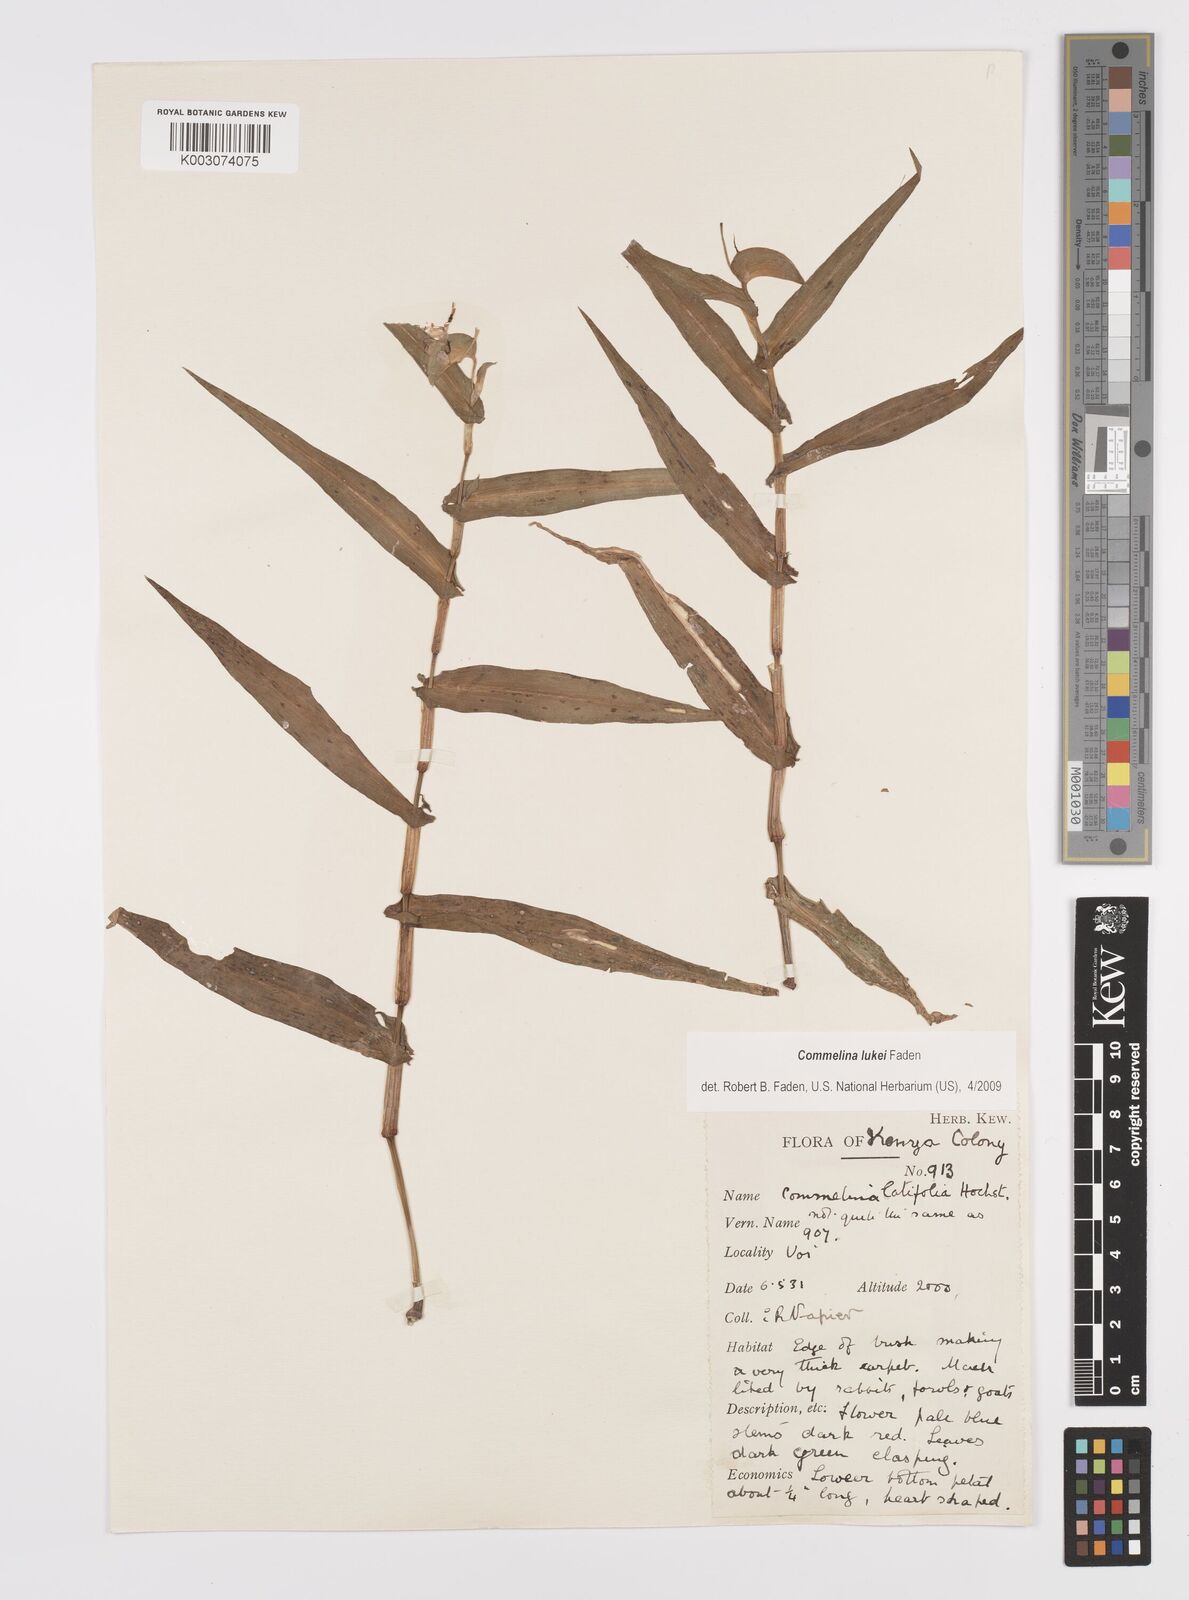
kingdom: Plantae
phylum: Tracheophyta
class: Liliopsida
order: Commelinales
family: Commelinaceae
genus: Commelina
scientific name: Commelina lukei
